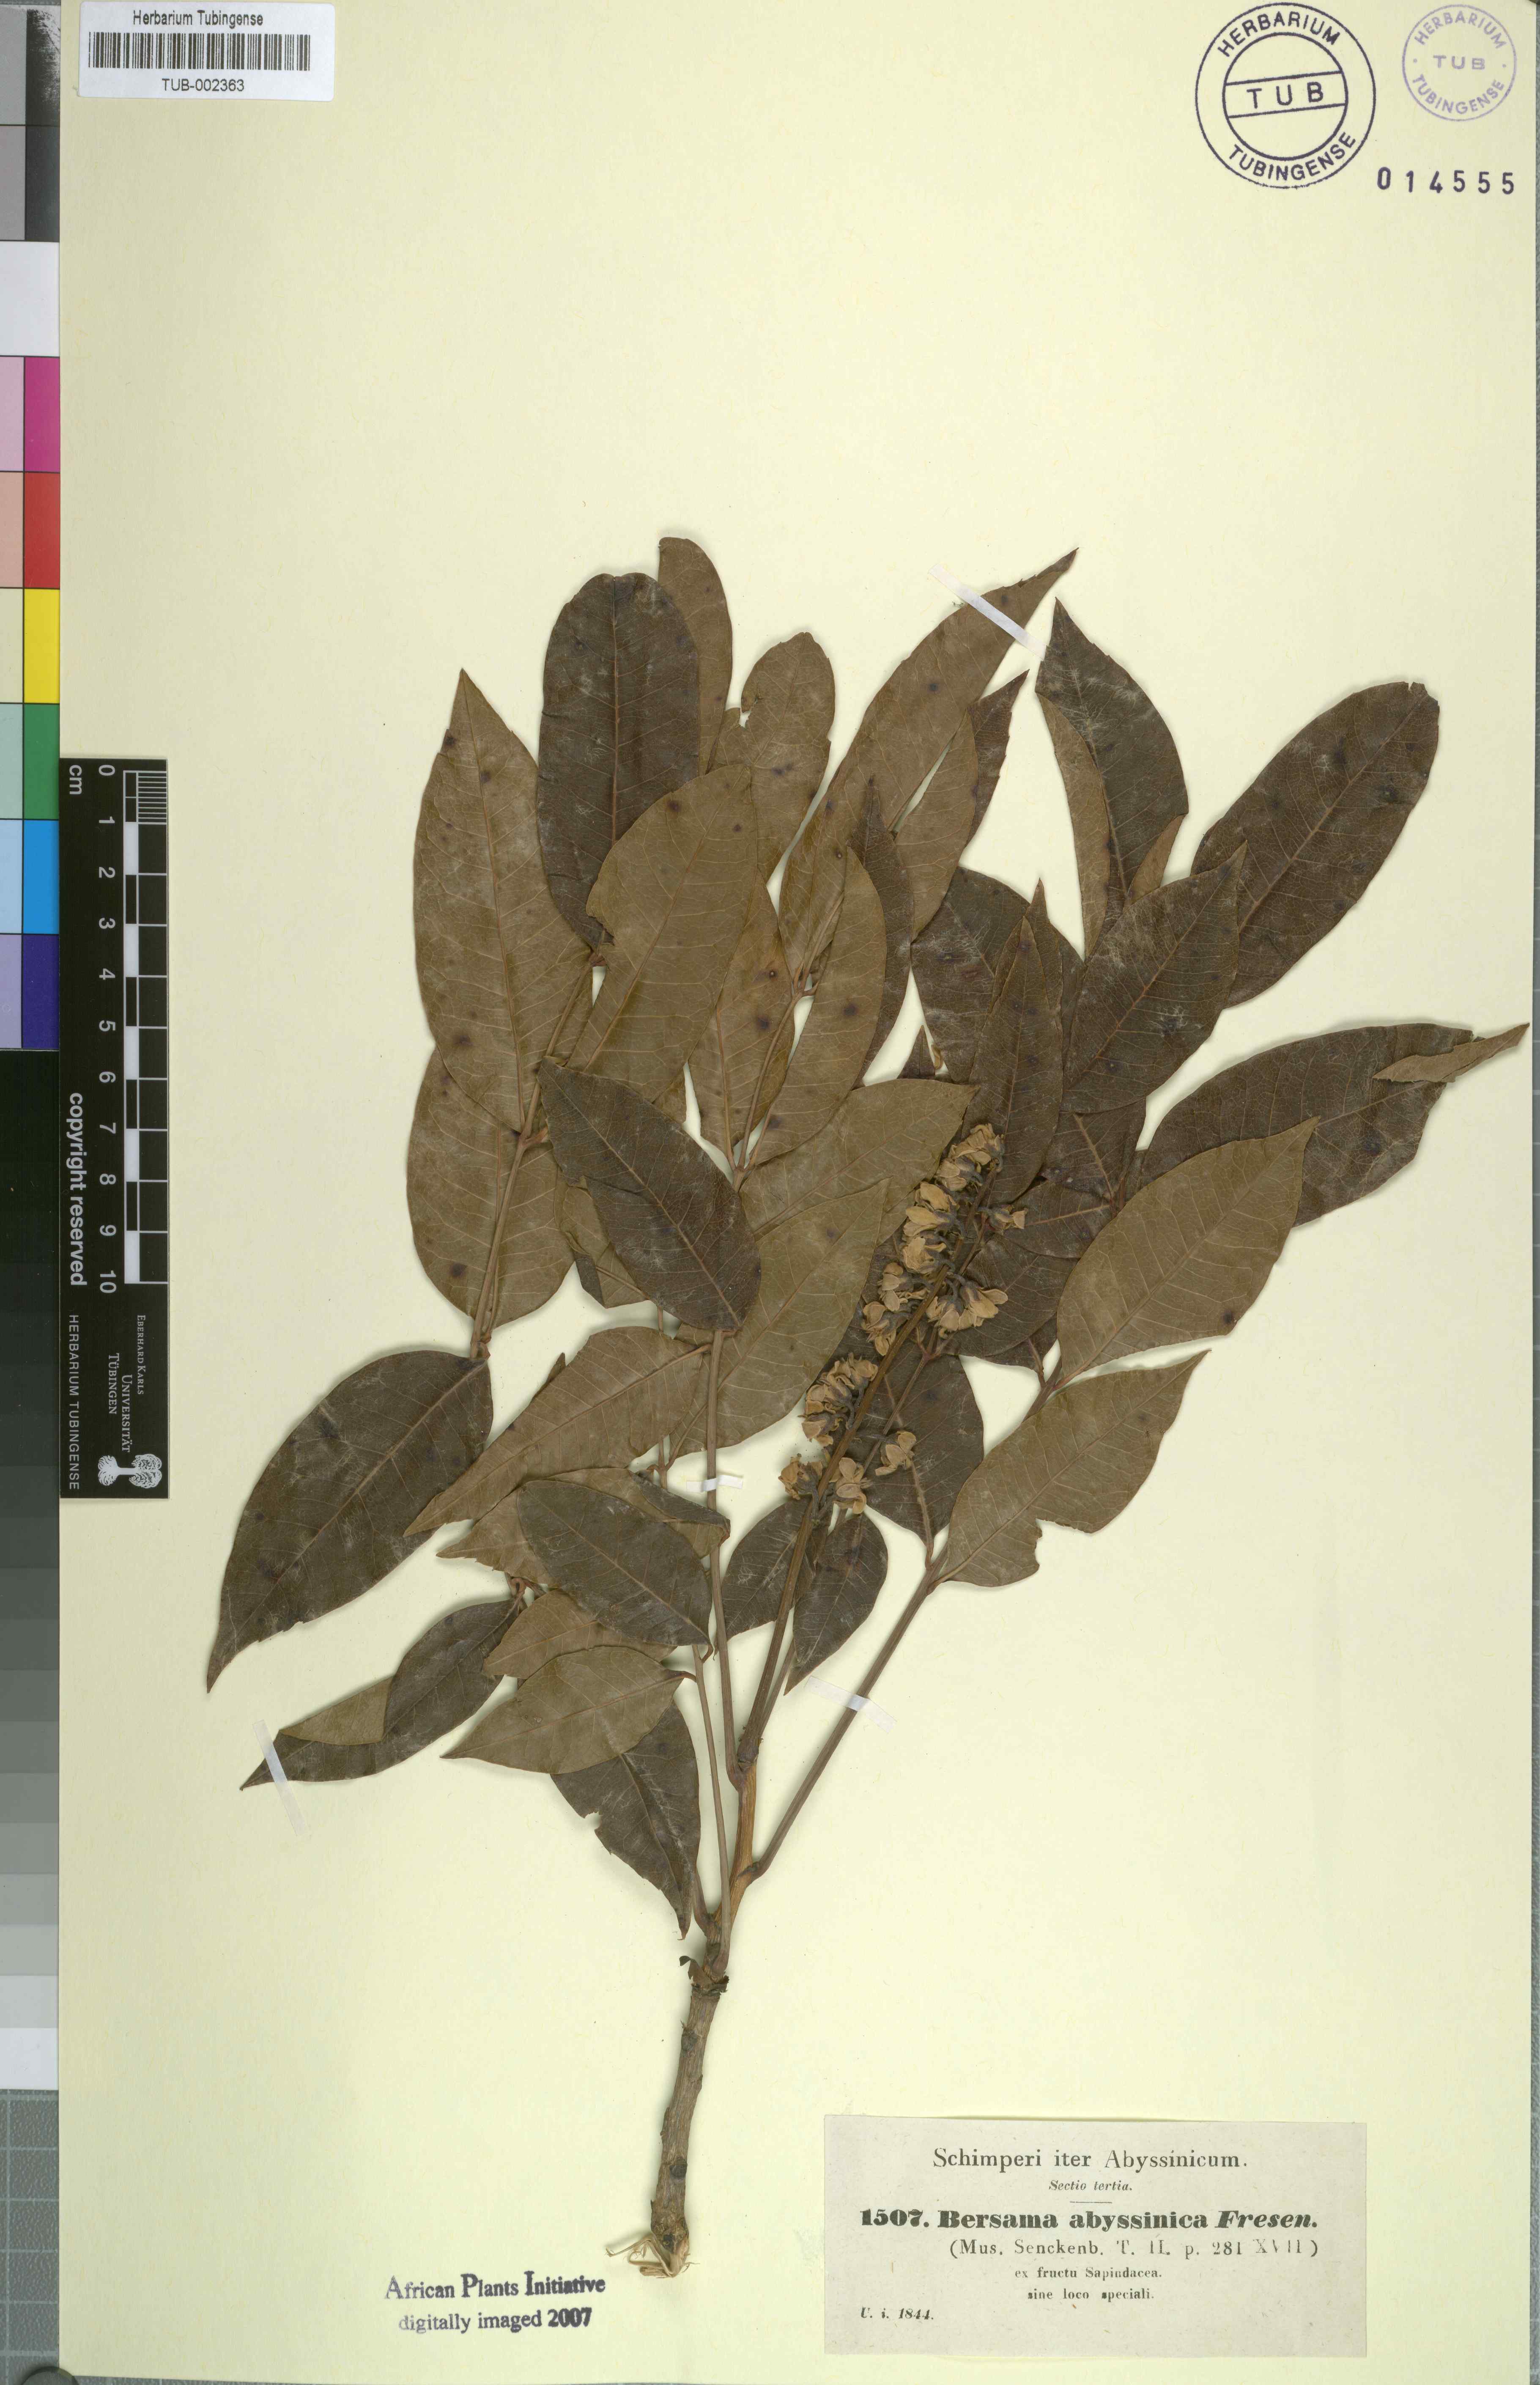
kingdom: Plantae
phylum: Tracheophyta
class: Magnoliopsida
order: Geraniales
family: Melianthaceae
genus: Bersama
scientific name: Bersama abyssinica
